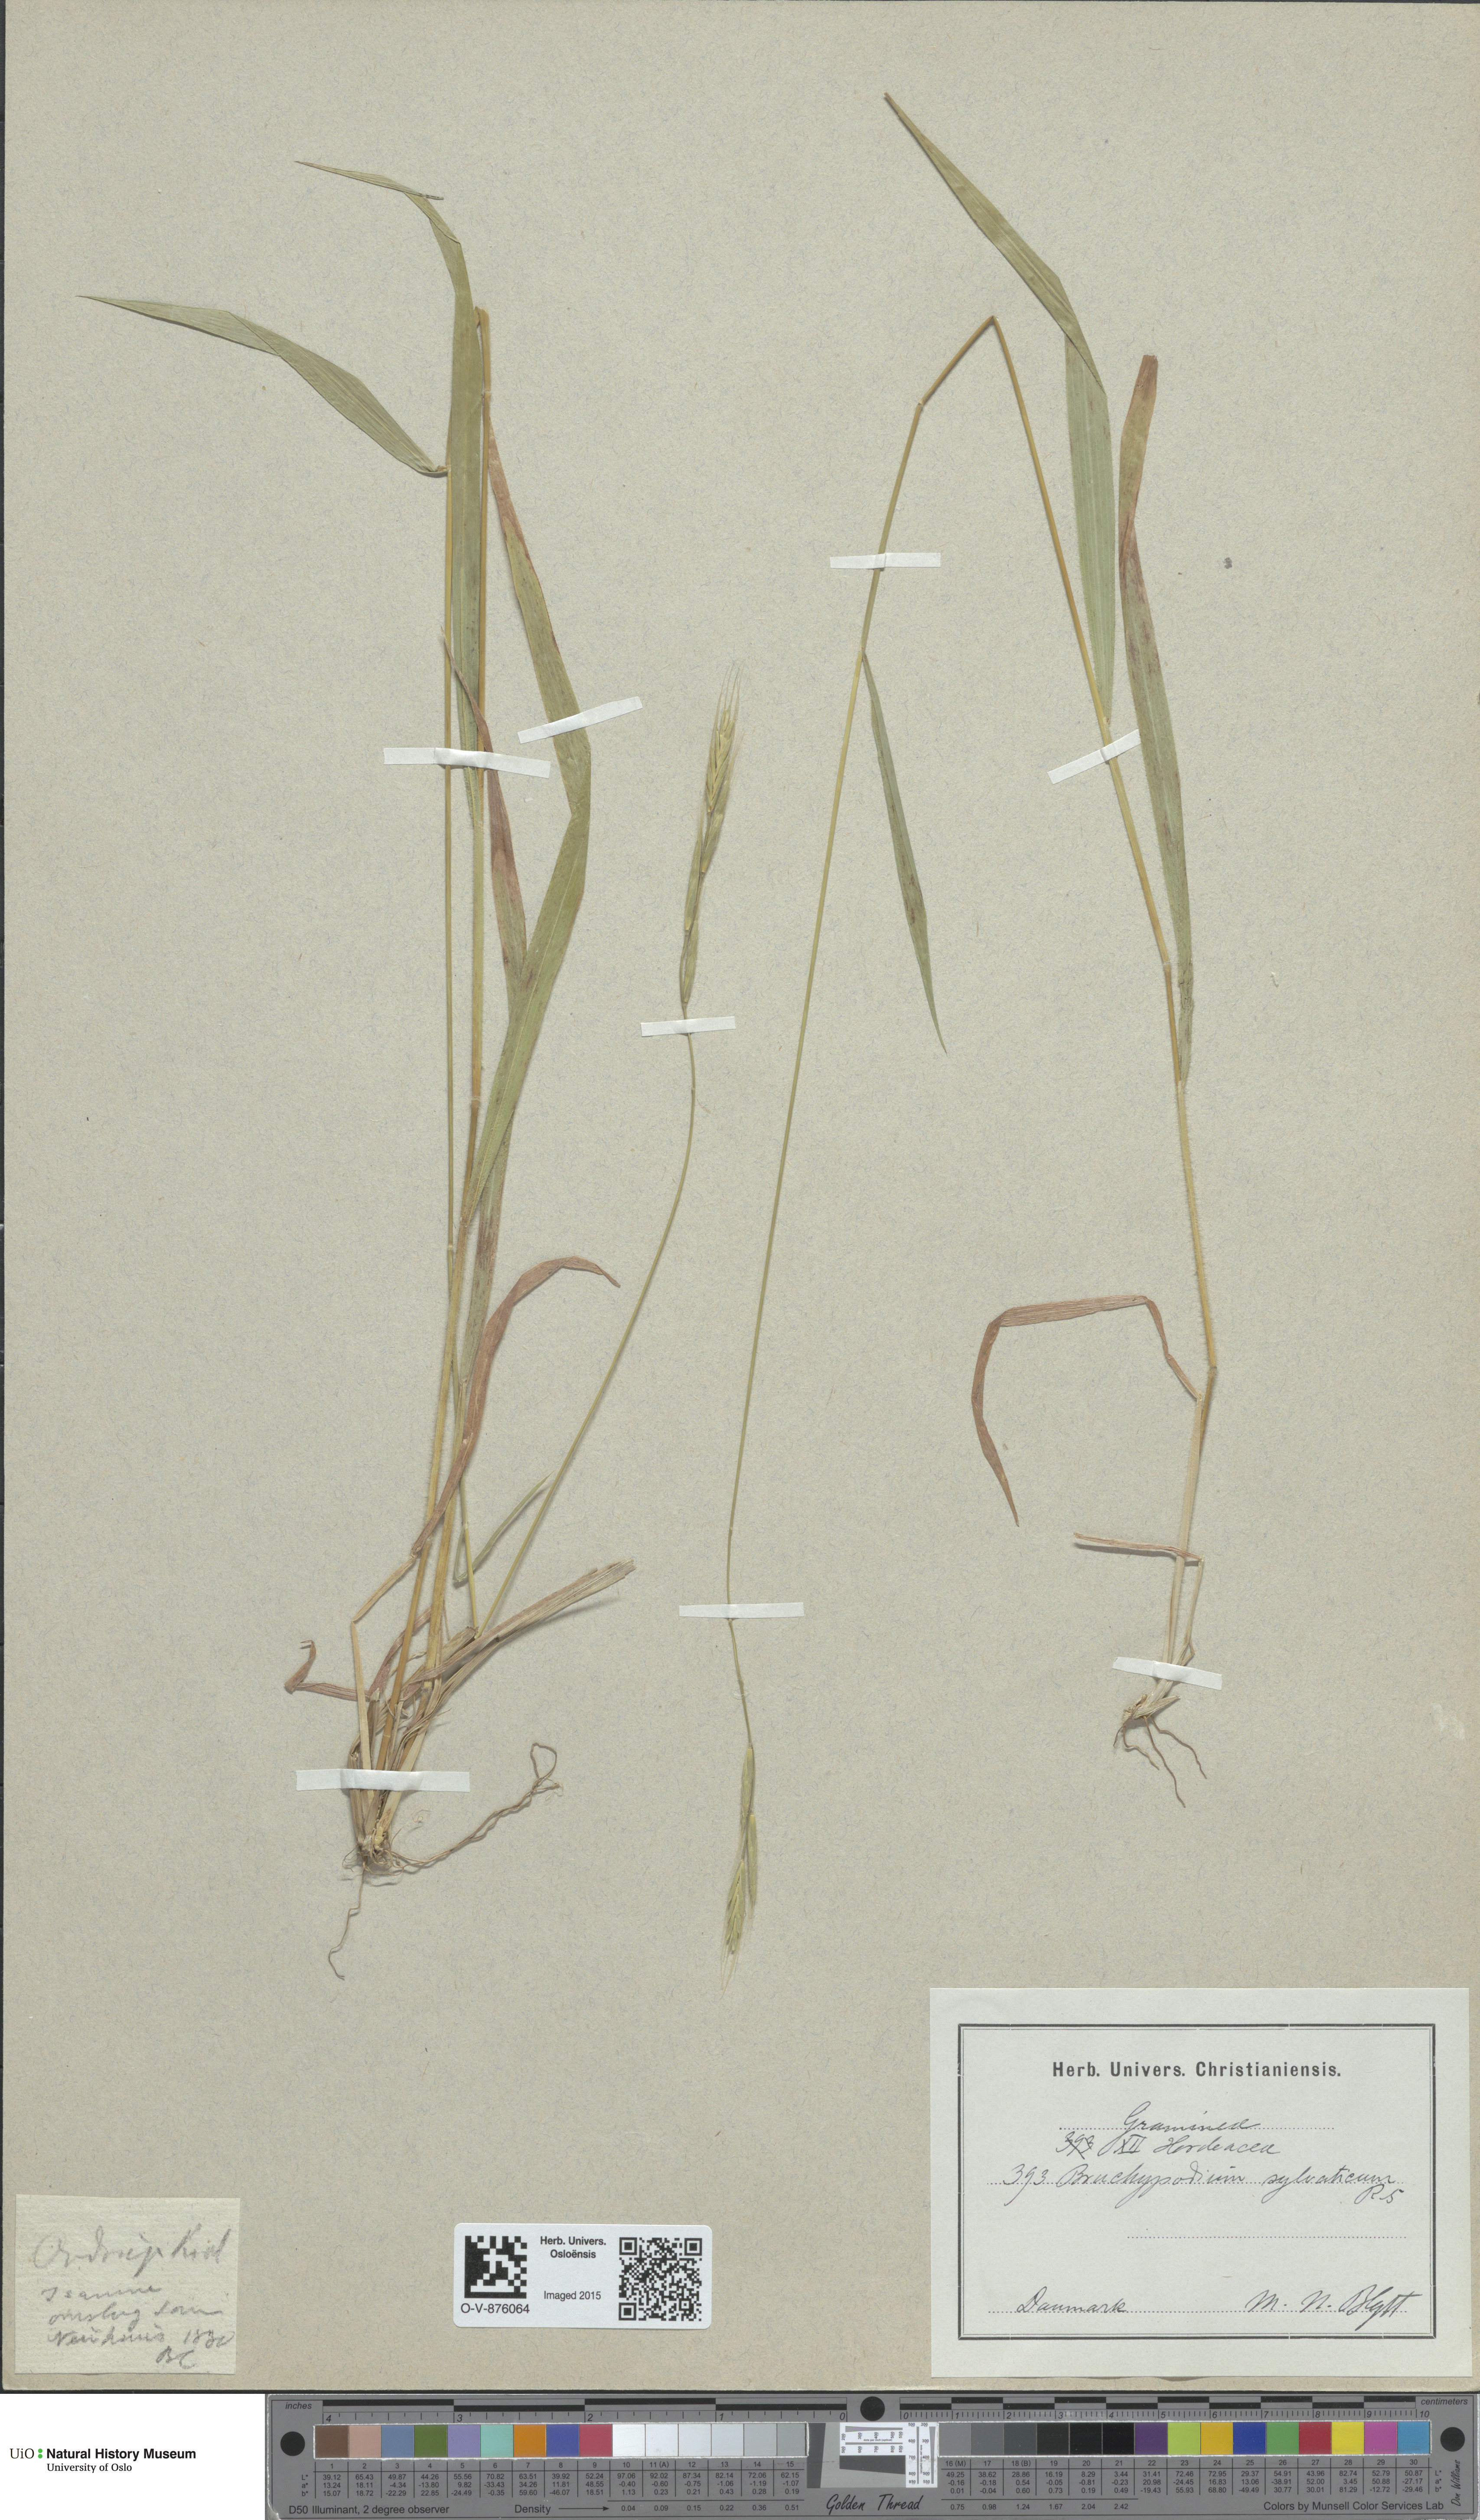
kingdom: Plantae
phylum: Tracheophyta
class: Liliopsida
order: Poales
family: Poaceae
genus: Brachypodium
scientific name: Brachypodium sylvaticum
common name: False-brome
